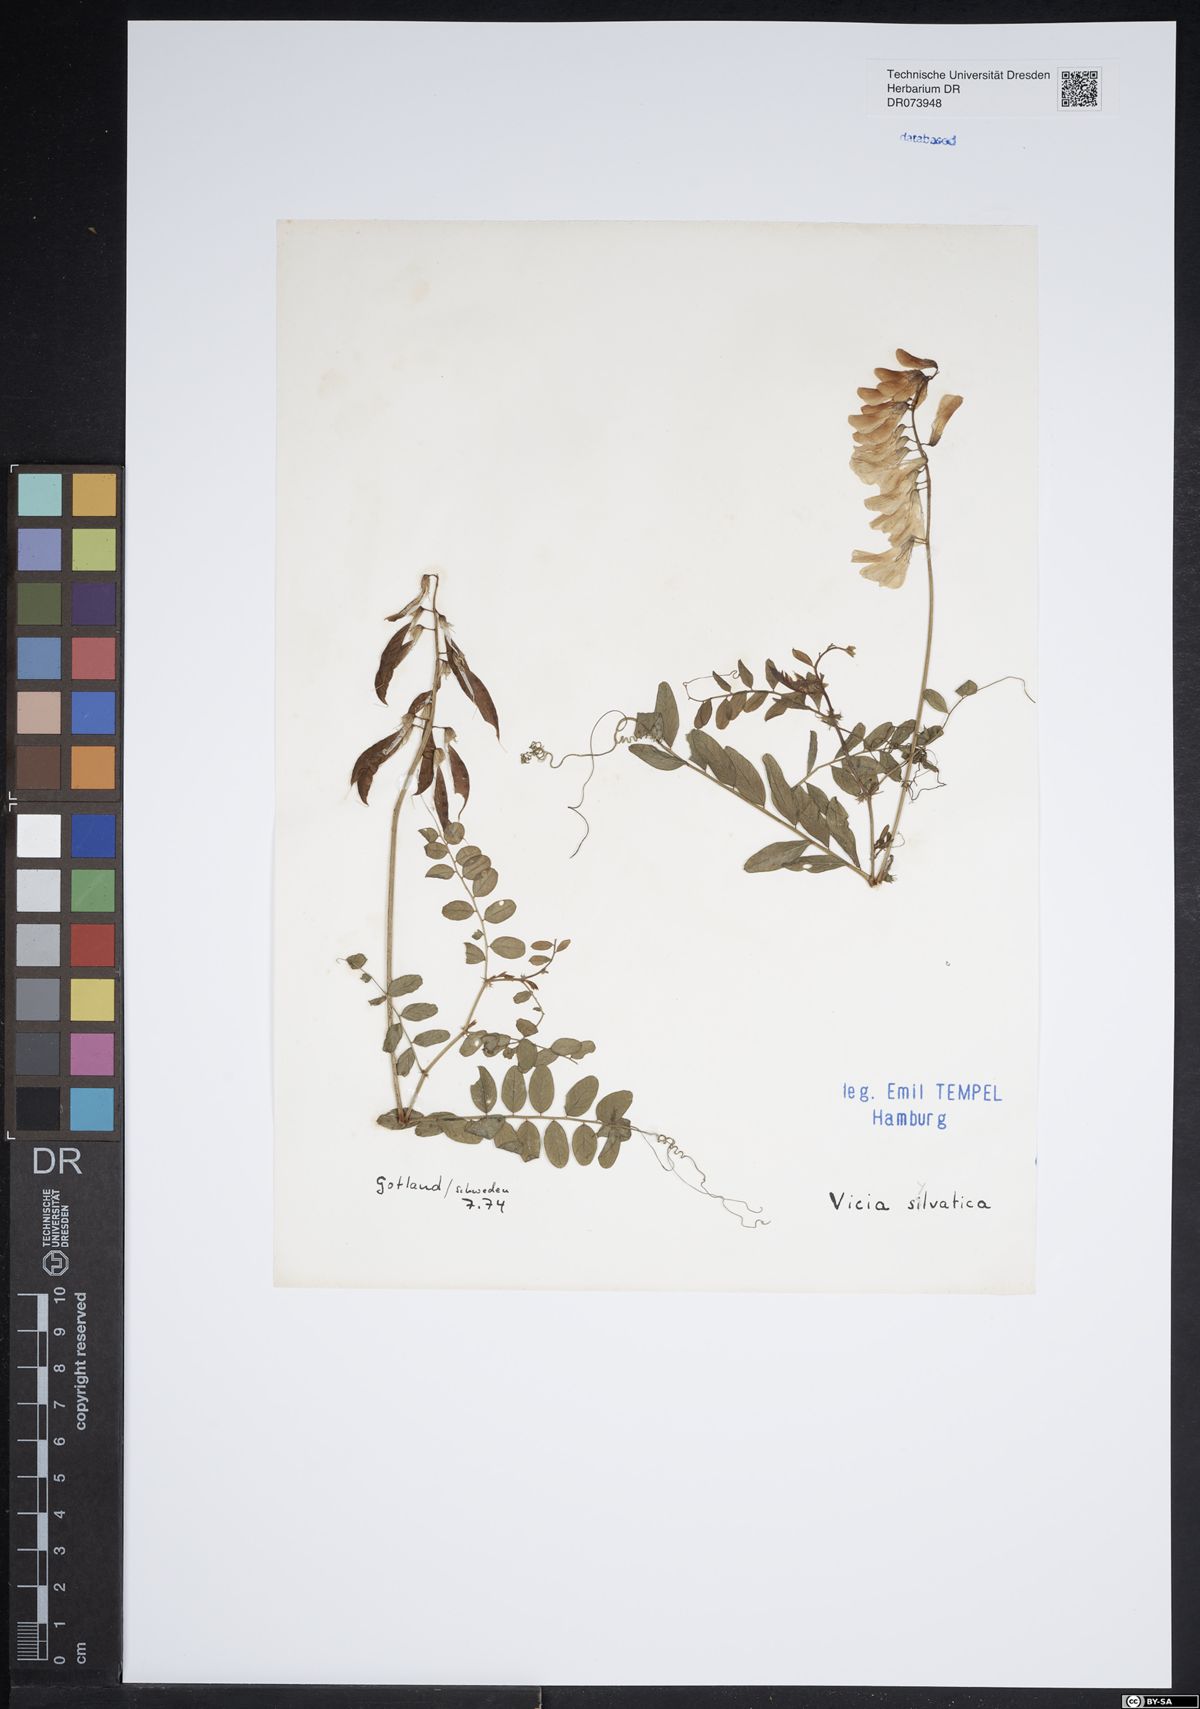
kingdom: Plantae
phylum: Tracheophyta
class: Magnoliopsida
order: Fabales
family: Fabaceae
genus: Vicia
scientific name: Vicia sylvatica
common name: Wood vetch
